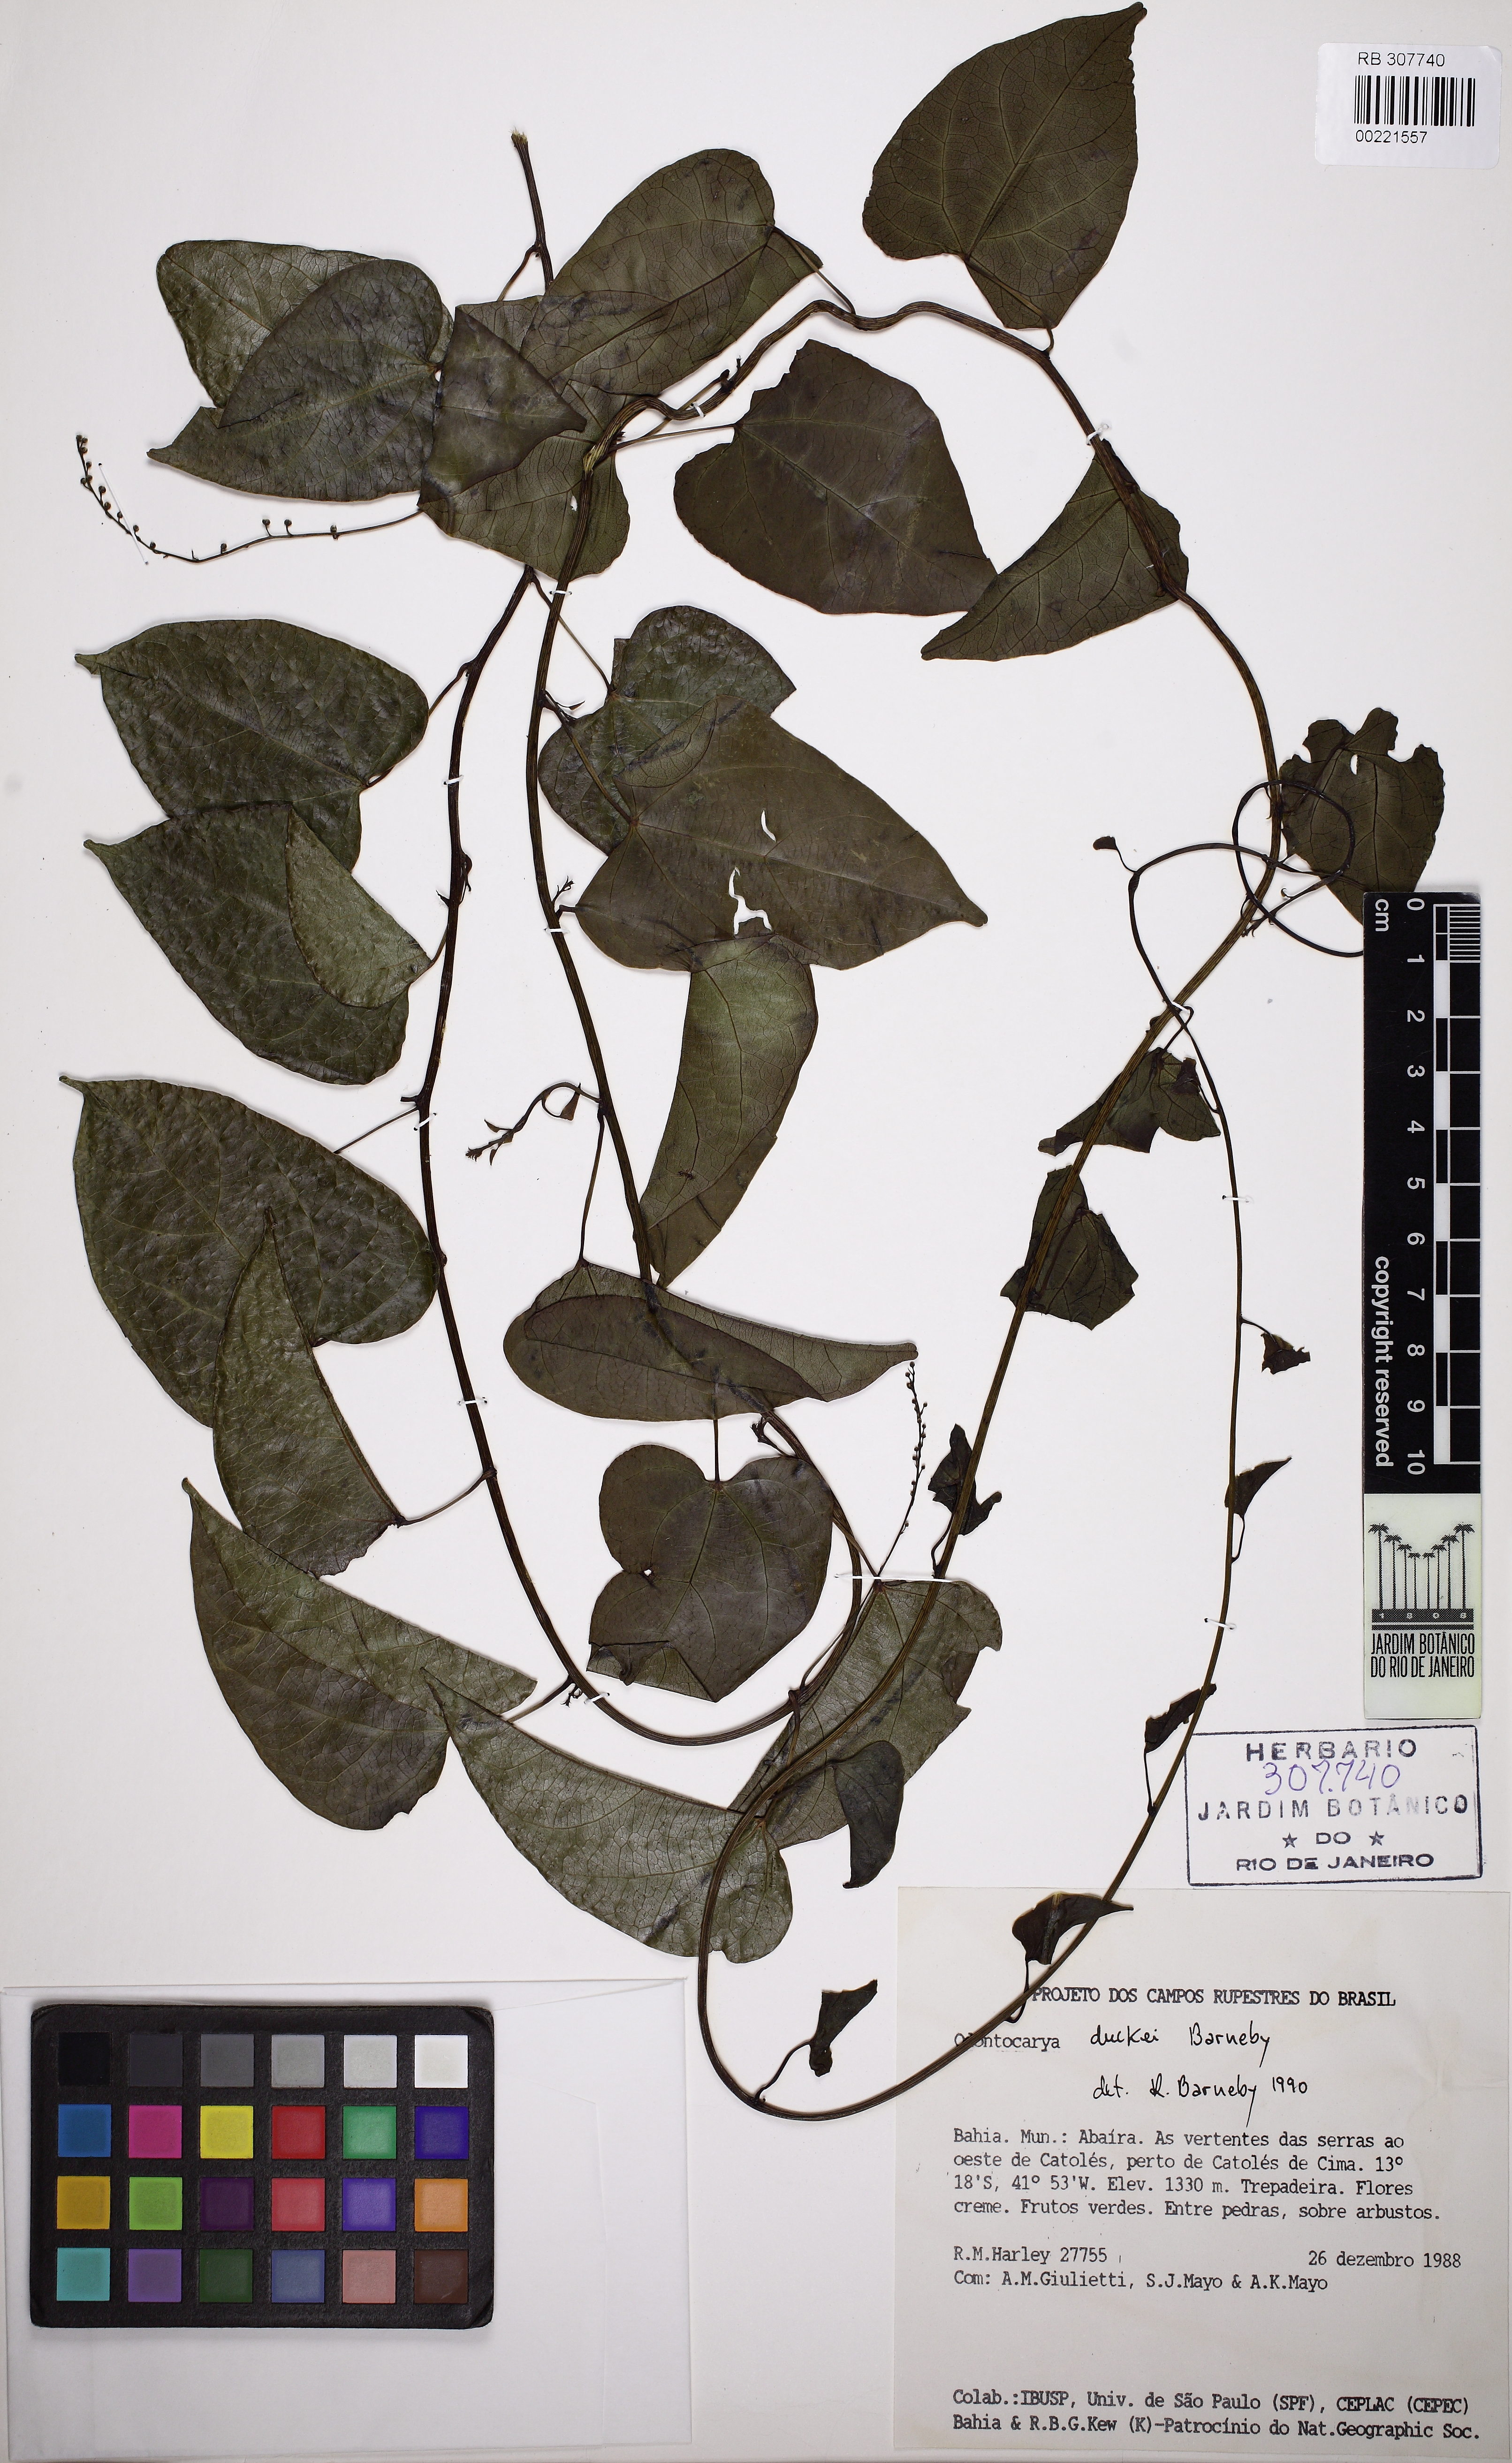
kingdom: Plantae
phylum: Tracheophyta
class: Magnoliopsida
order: Ranunculales
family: Menispermaceae
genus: Odontocarya
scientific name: Odontocarya duckei
